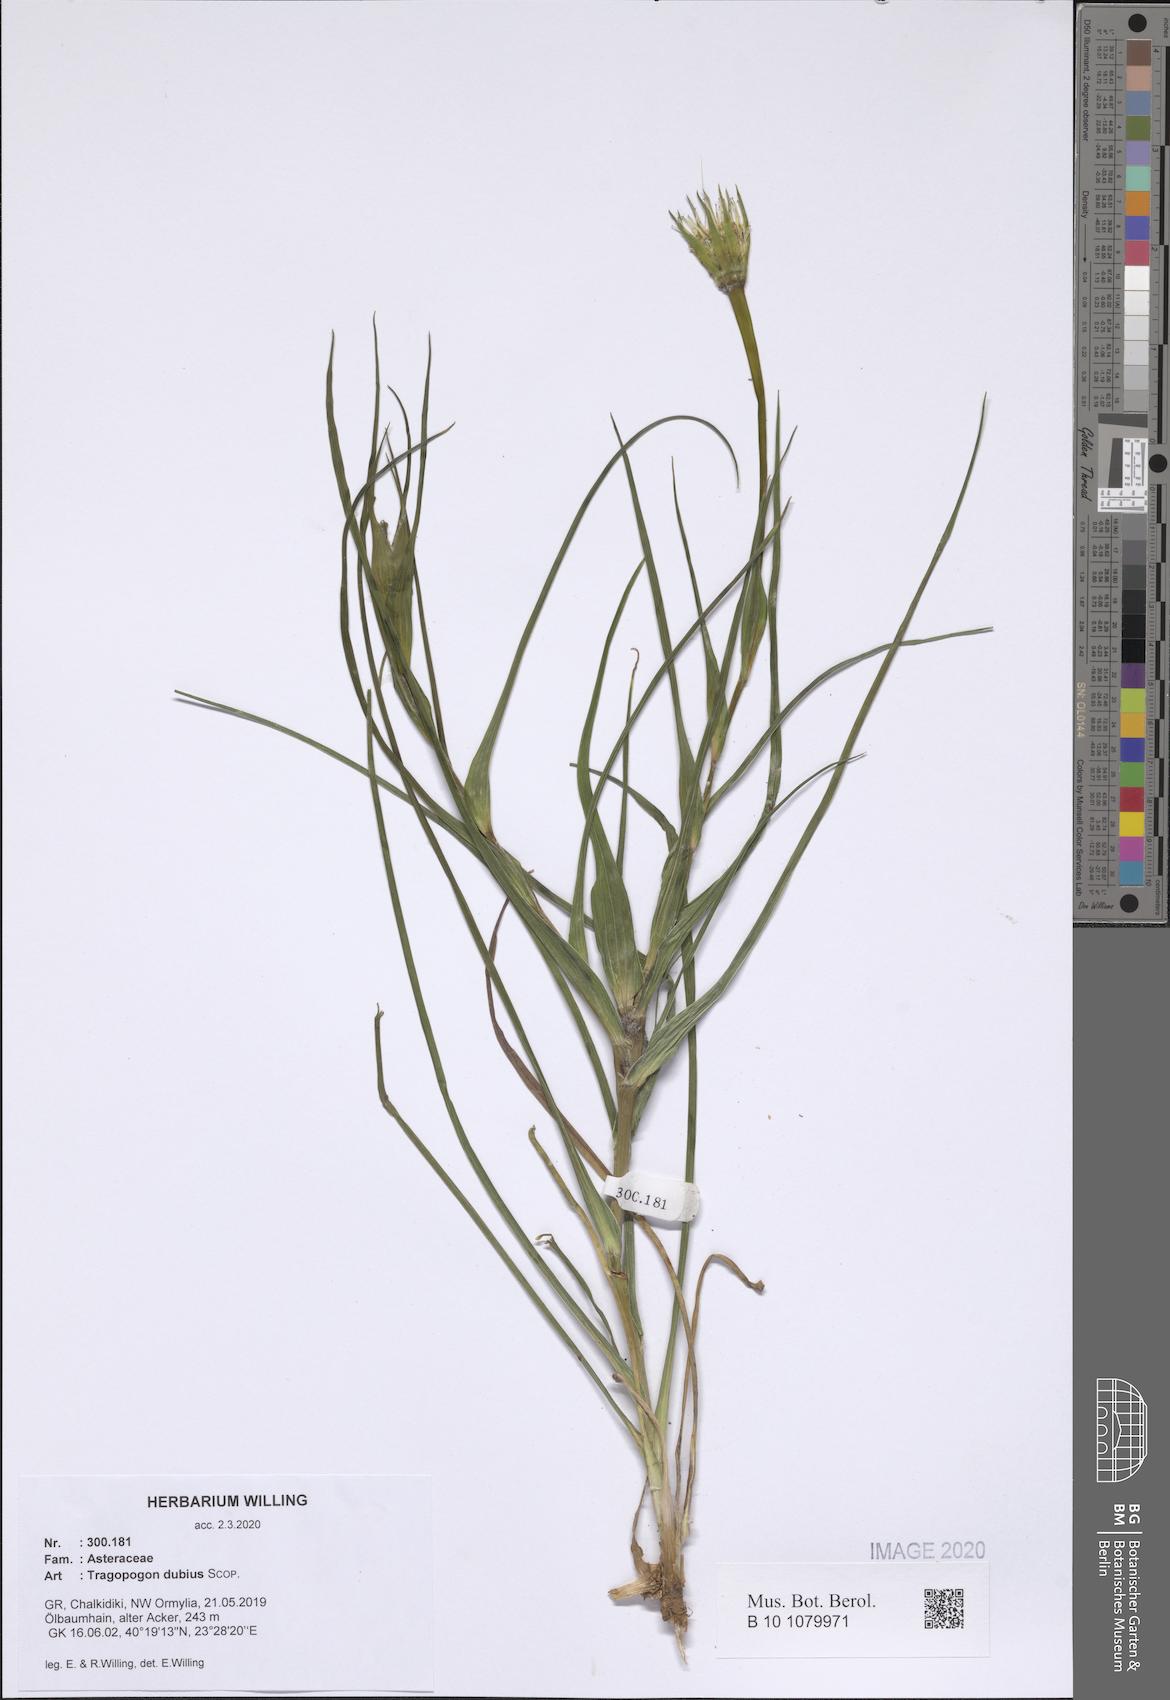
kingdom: Plantae
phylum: Tracheophyta
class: Magnoliopsida
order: Asterales
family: Asteraceae
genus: Tragopogon
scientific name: Tragopogon dubius
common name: Yellow salsify
